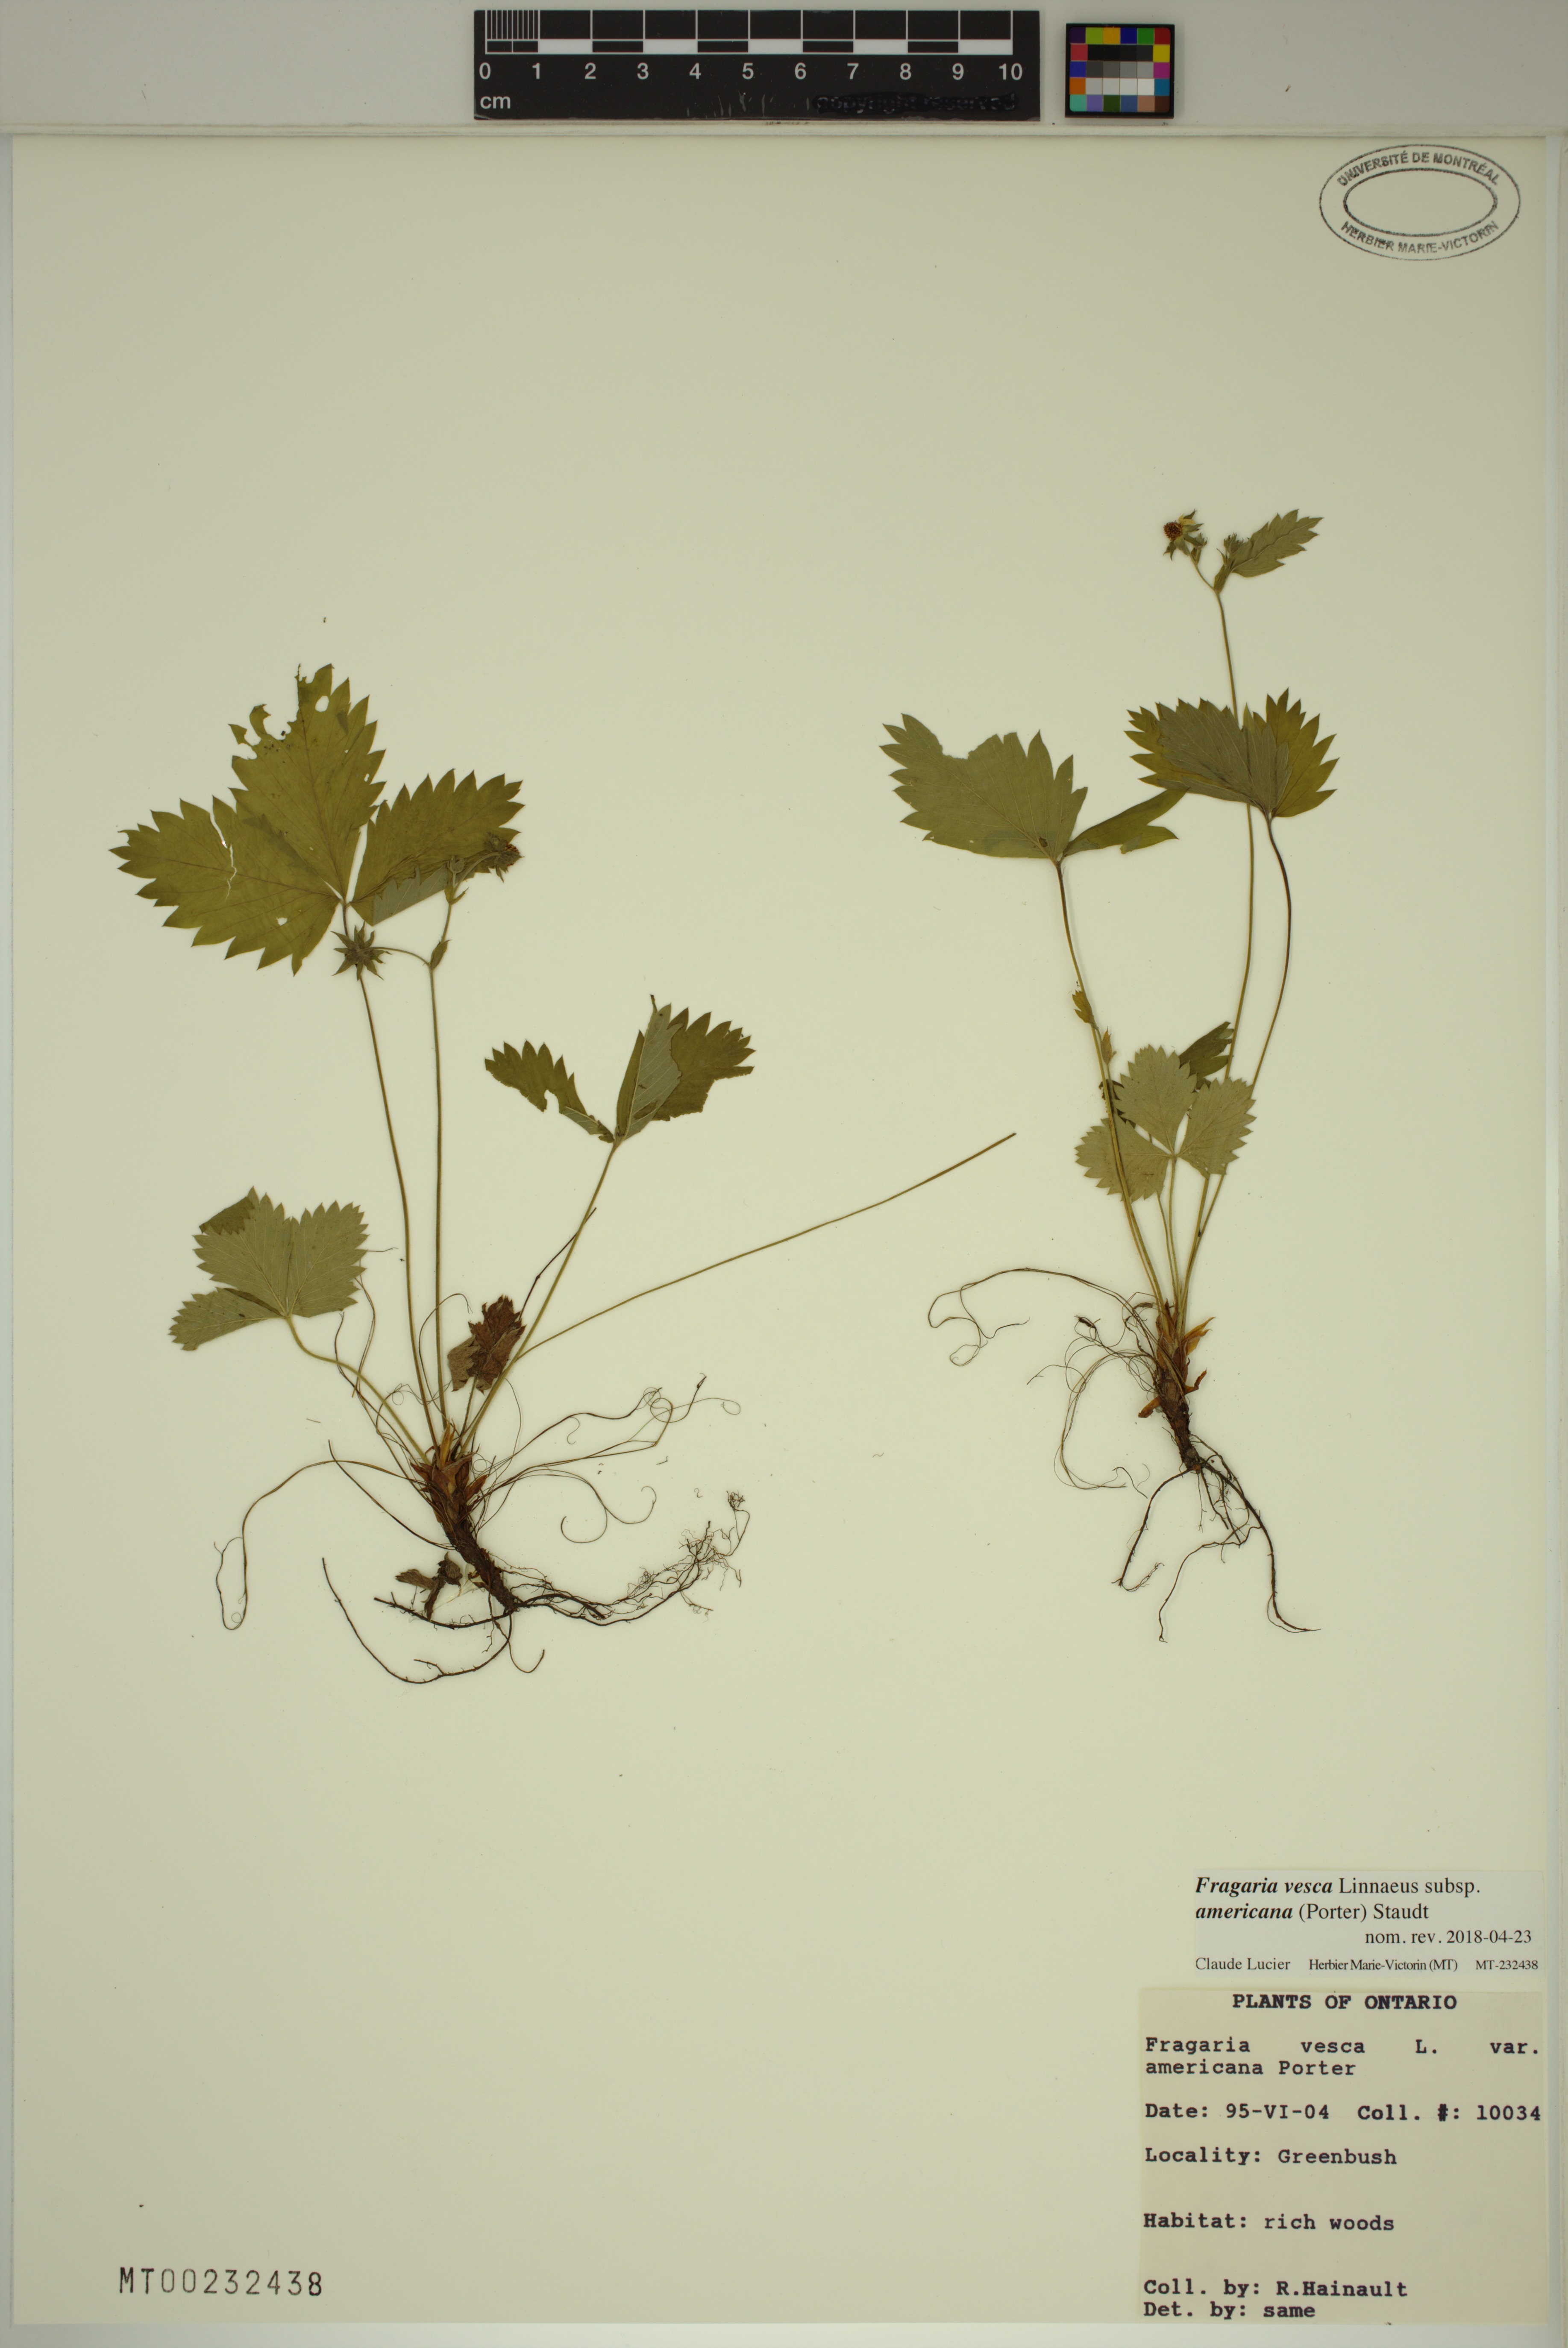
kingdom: Plantae
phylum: Tracheophyta
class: Magnoliopsida
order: Rosales
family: Rosaceae
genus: Fragaria
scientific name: Fragaria vesca
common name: Wild strawberry
